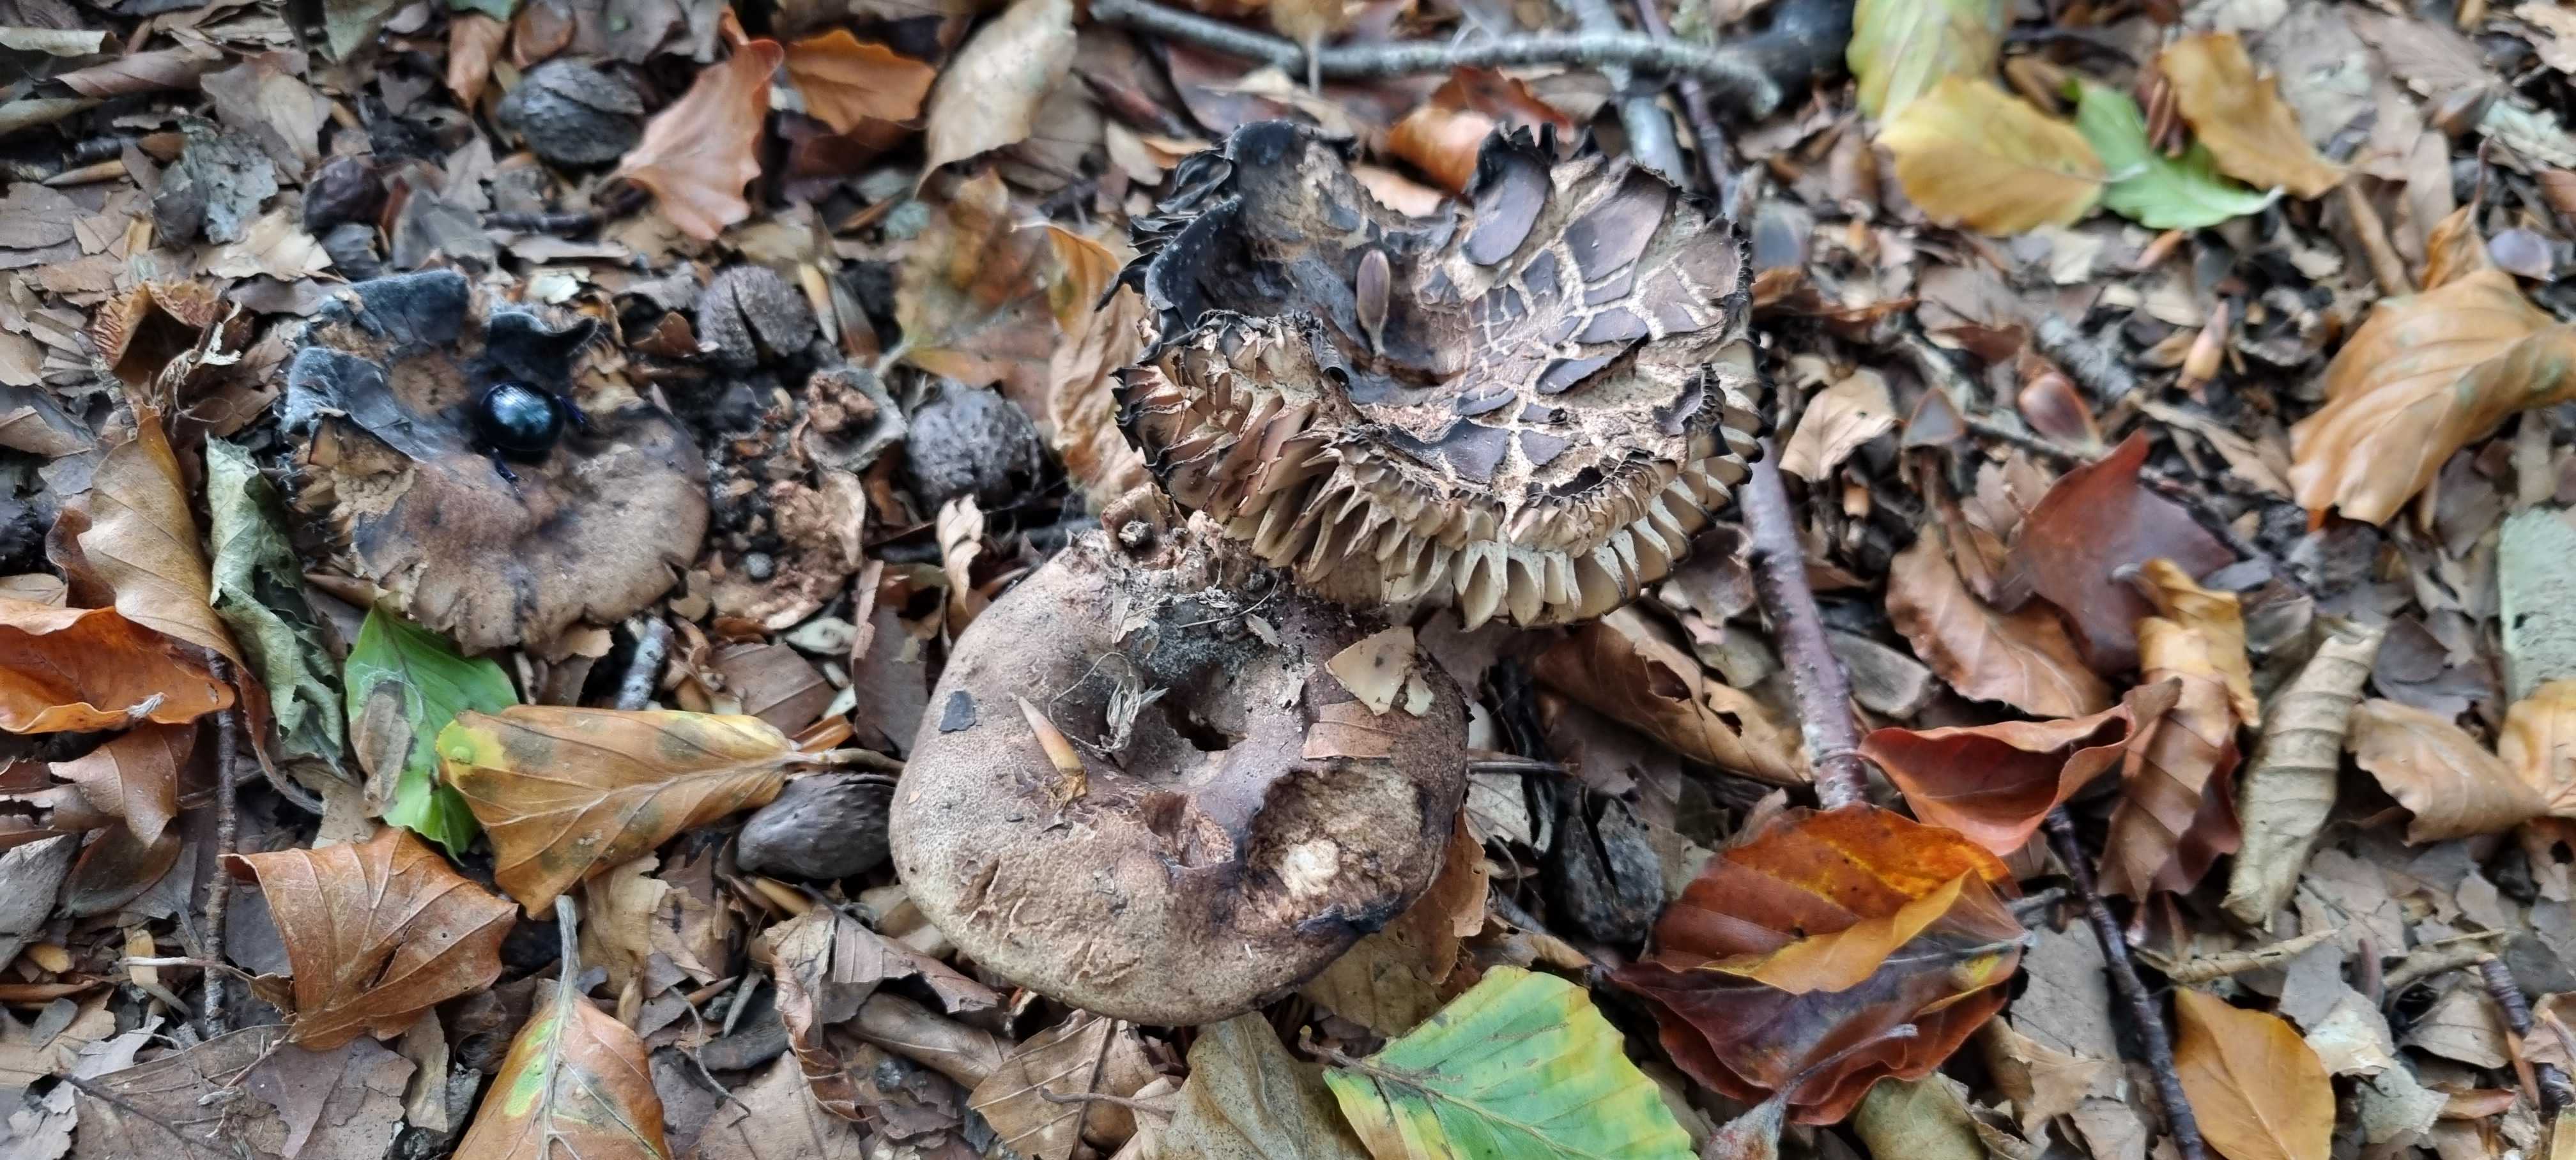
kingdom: Fungi
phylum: Basidiomycota
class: Agaricomycetes
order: Russulales
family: Russulaceae
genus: Russula
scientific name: Russula adusta
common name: sværtende skørhat
